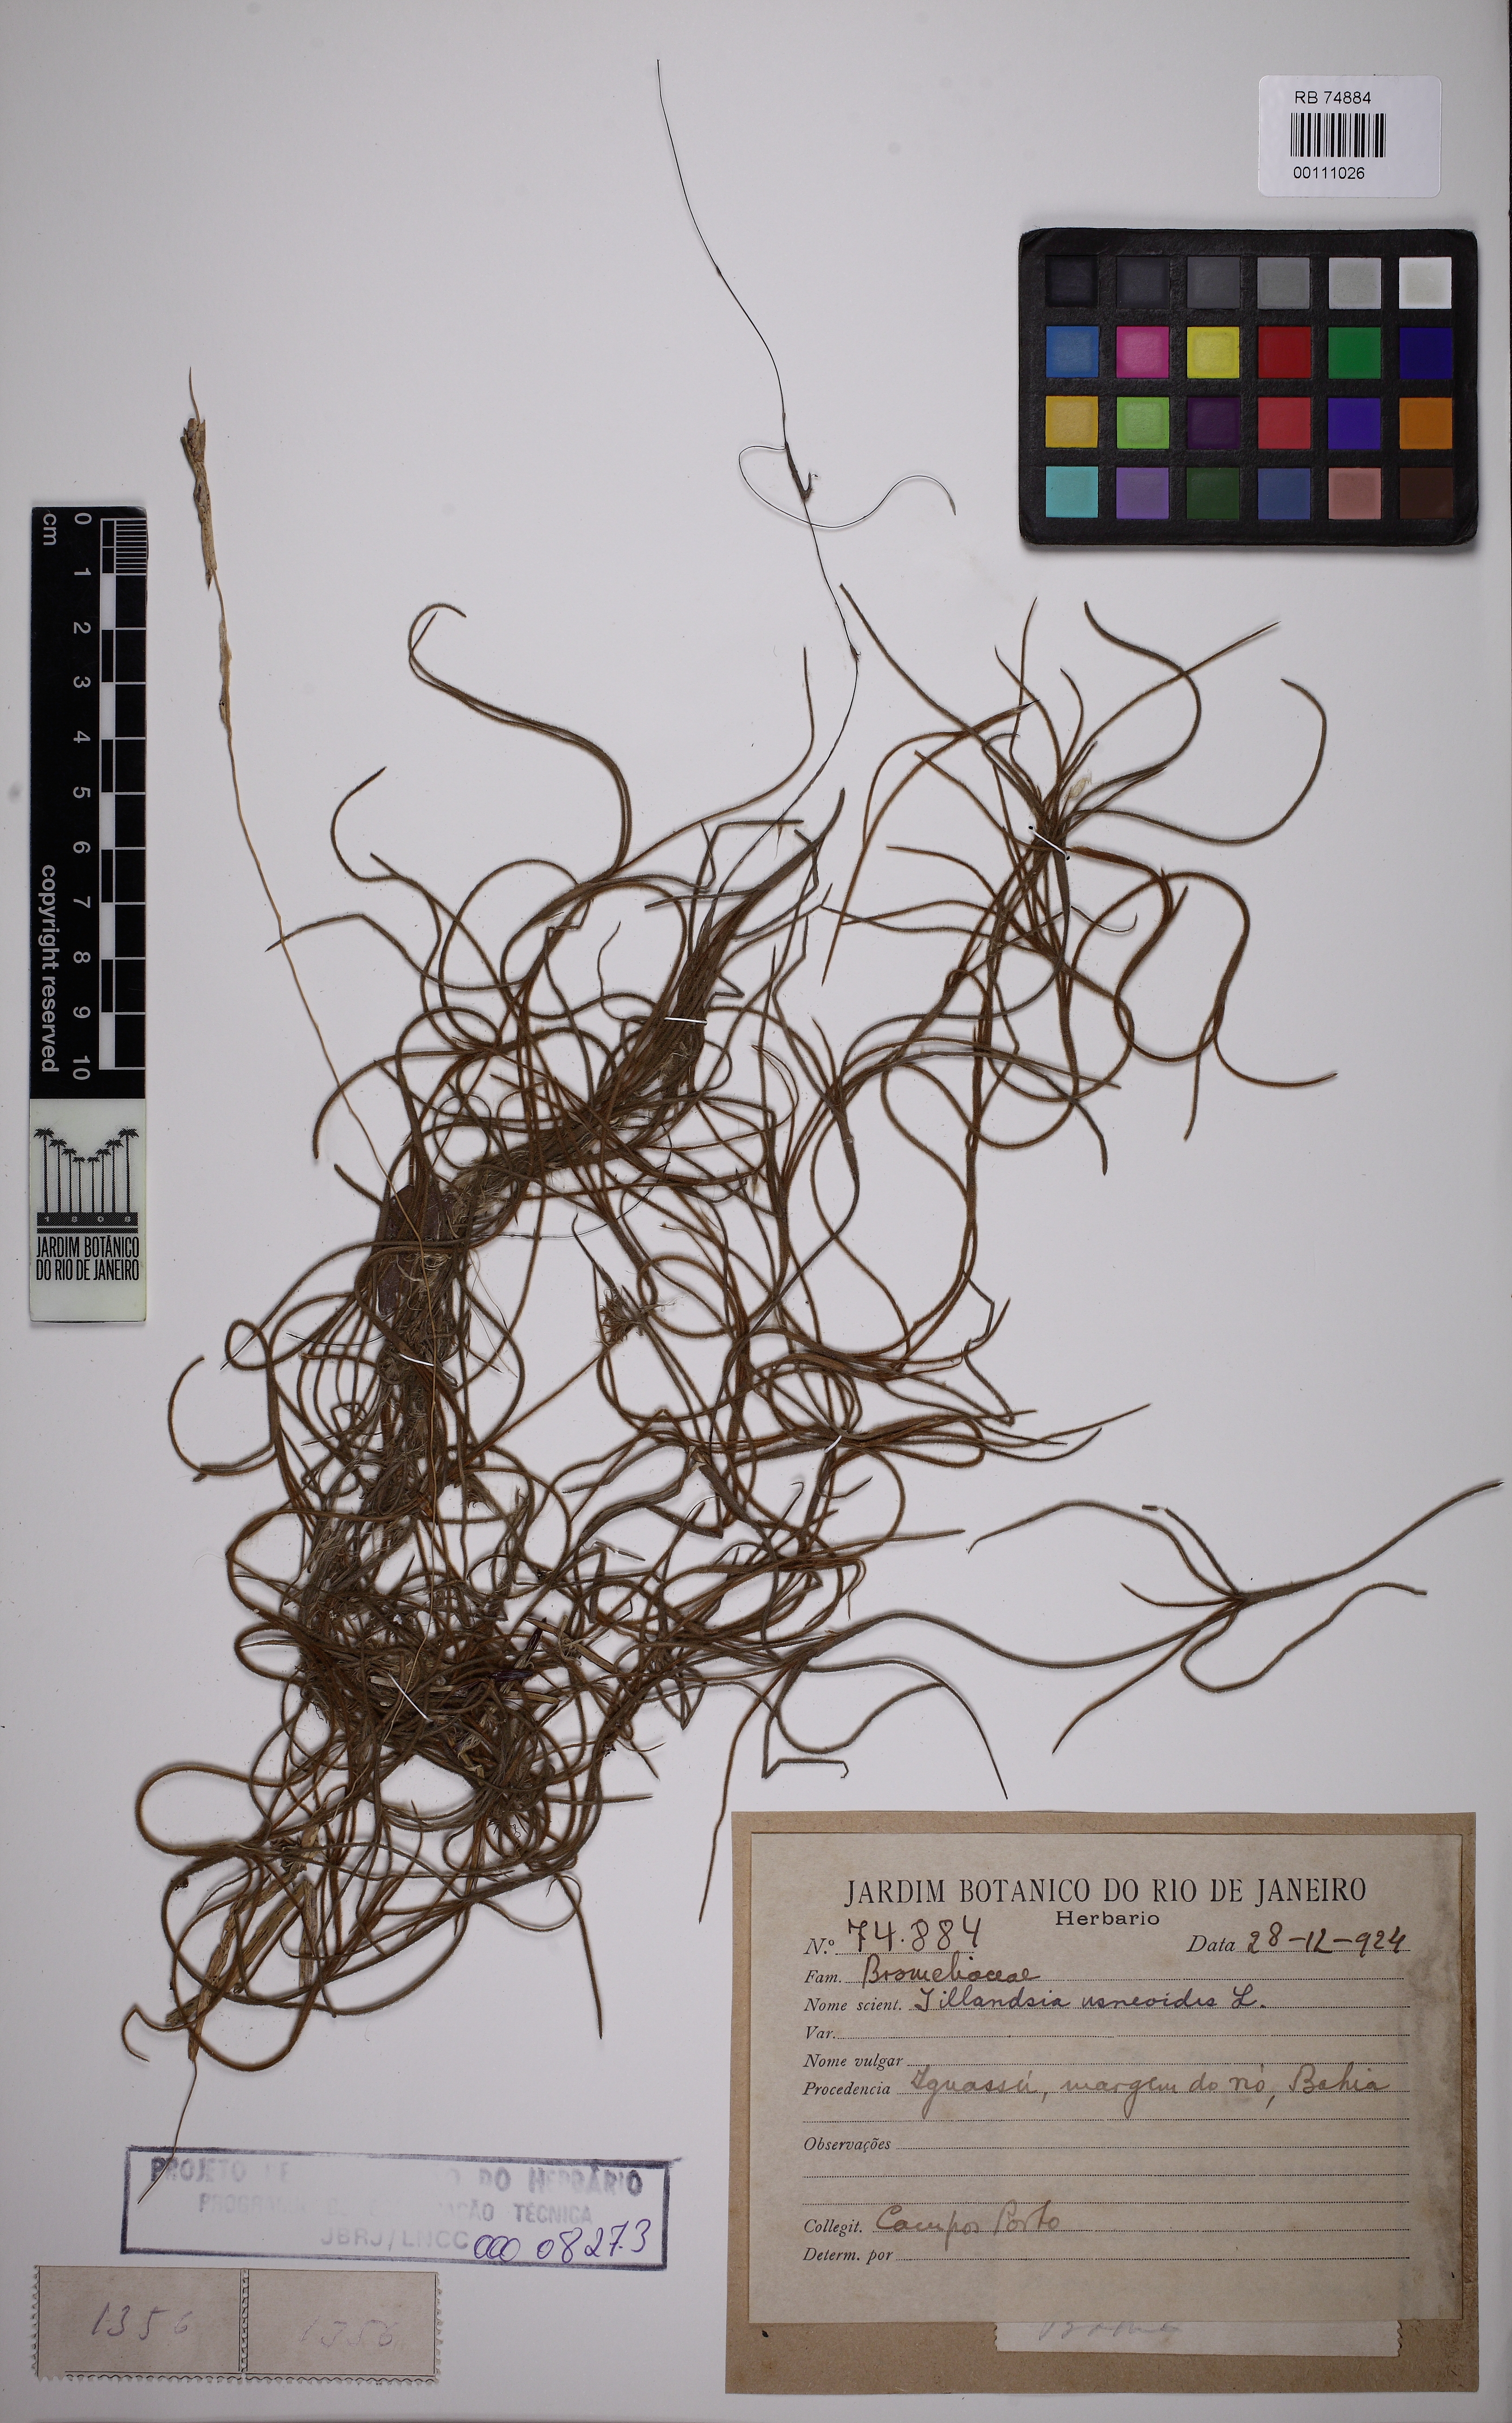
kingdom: Plantae
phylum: Tracheophyta
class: Liliopsida
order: Poales
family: Bromeliaceae
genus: Tillandsia
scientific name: Tillandsia usneoides
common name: Spanish moss
